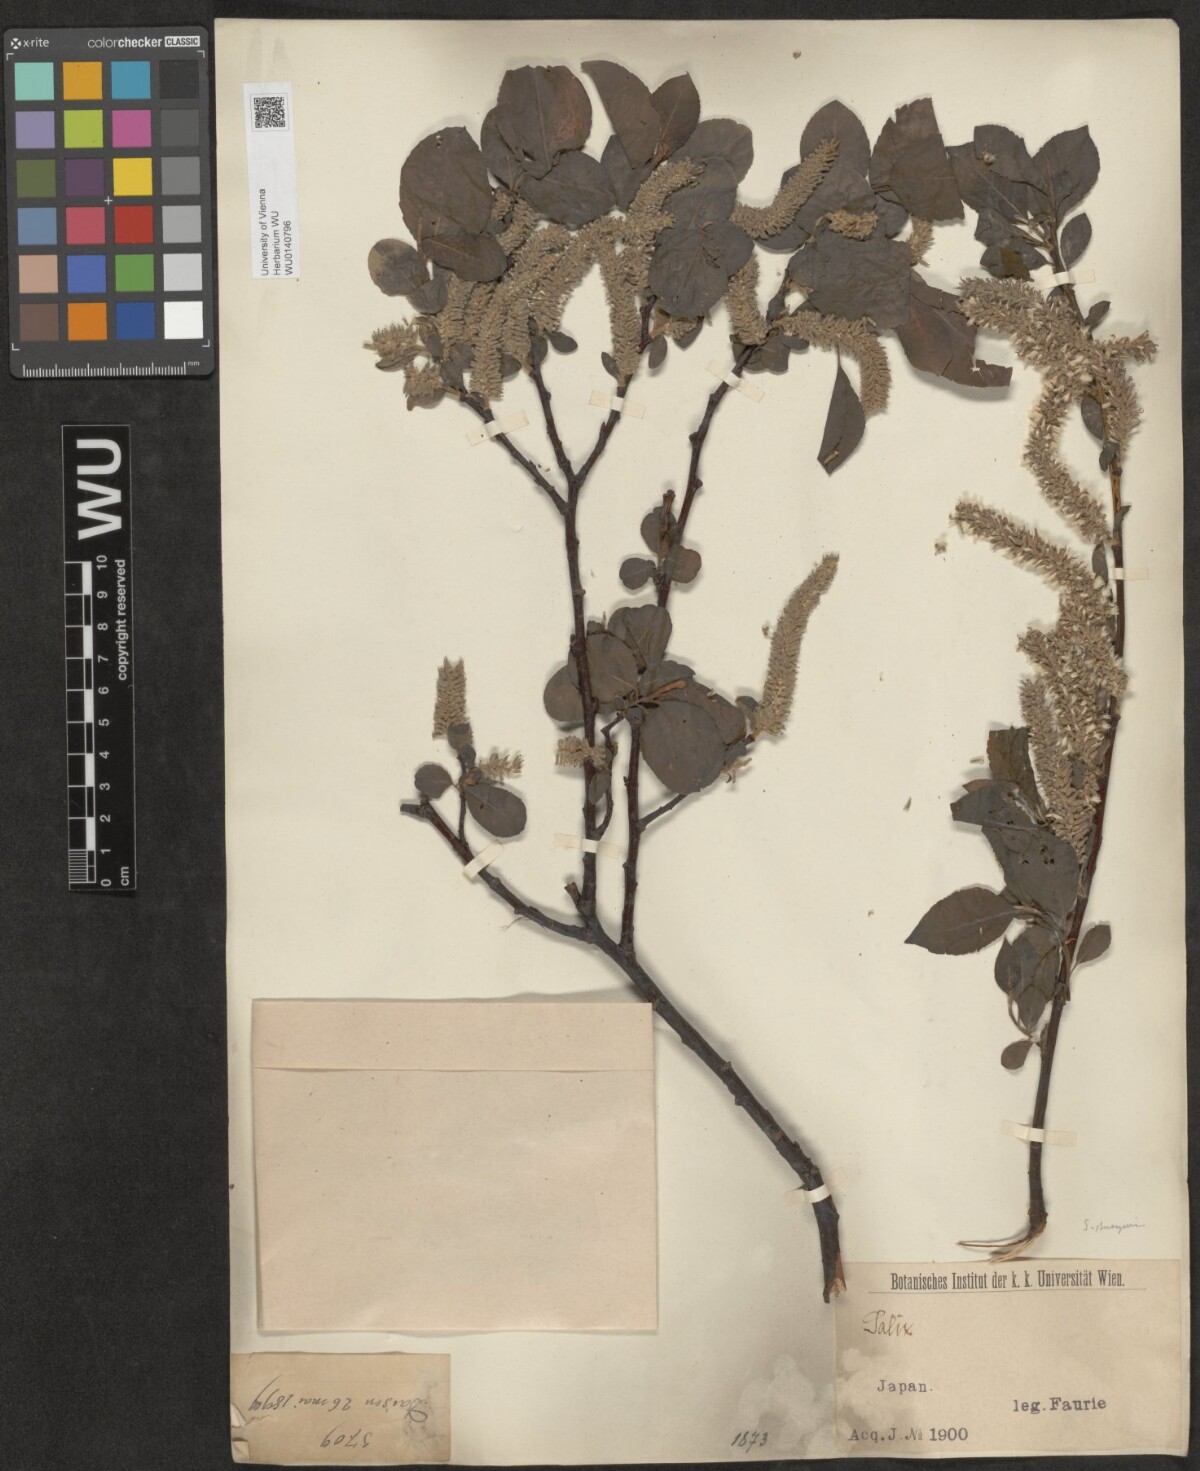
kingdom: Plantae
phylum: Tracheophyta
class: Magnoliopsida
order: Malpighiales
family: Salicaceae
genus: Salix
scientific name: Salix
